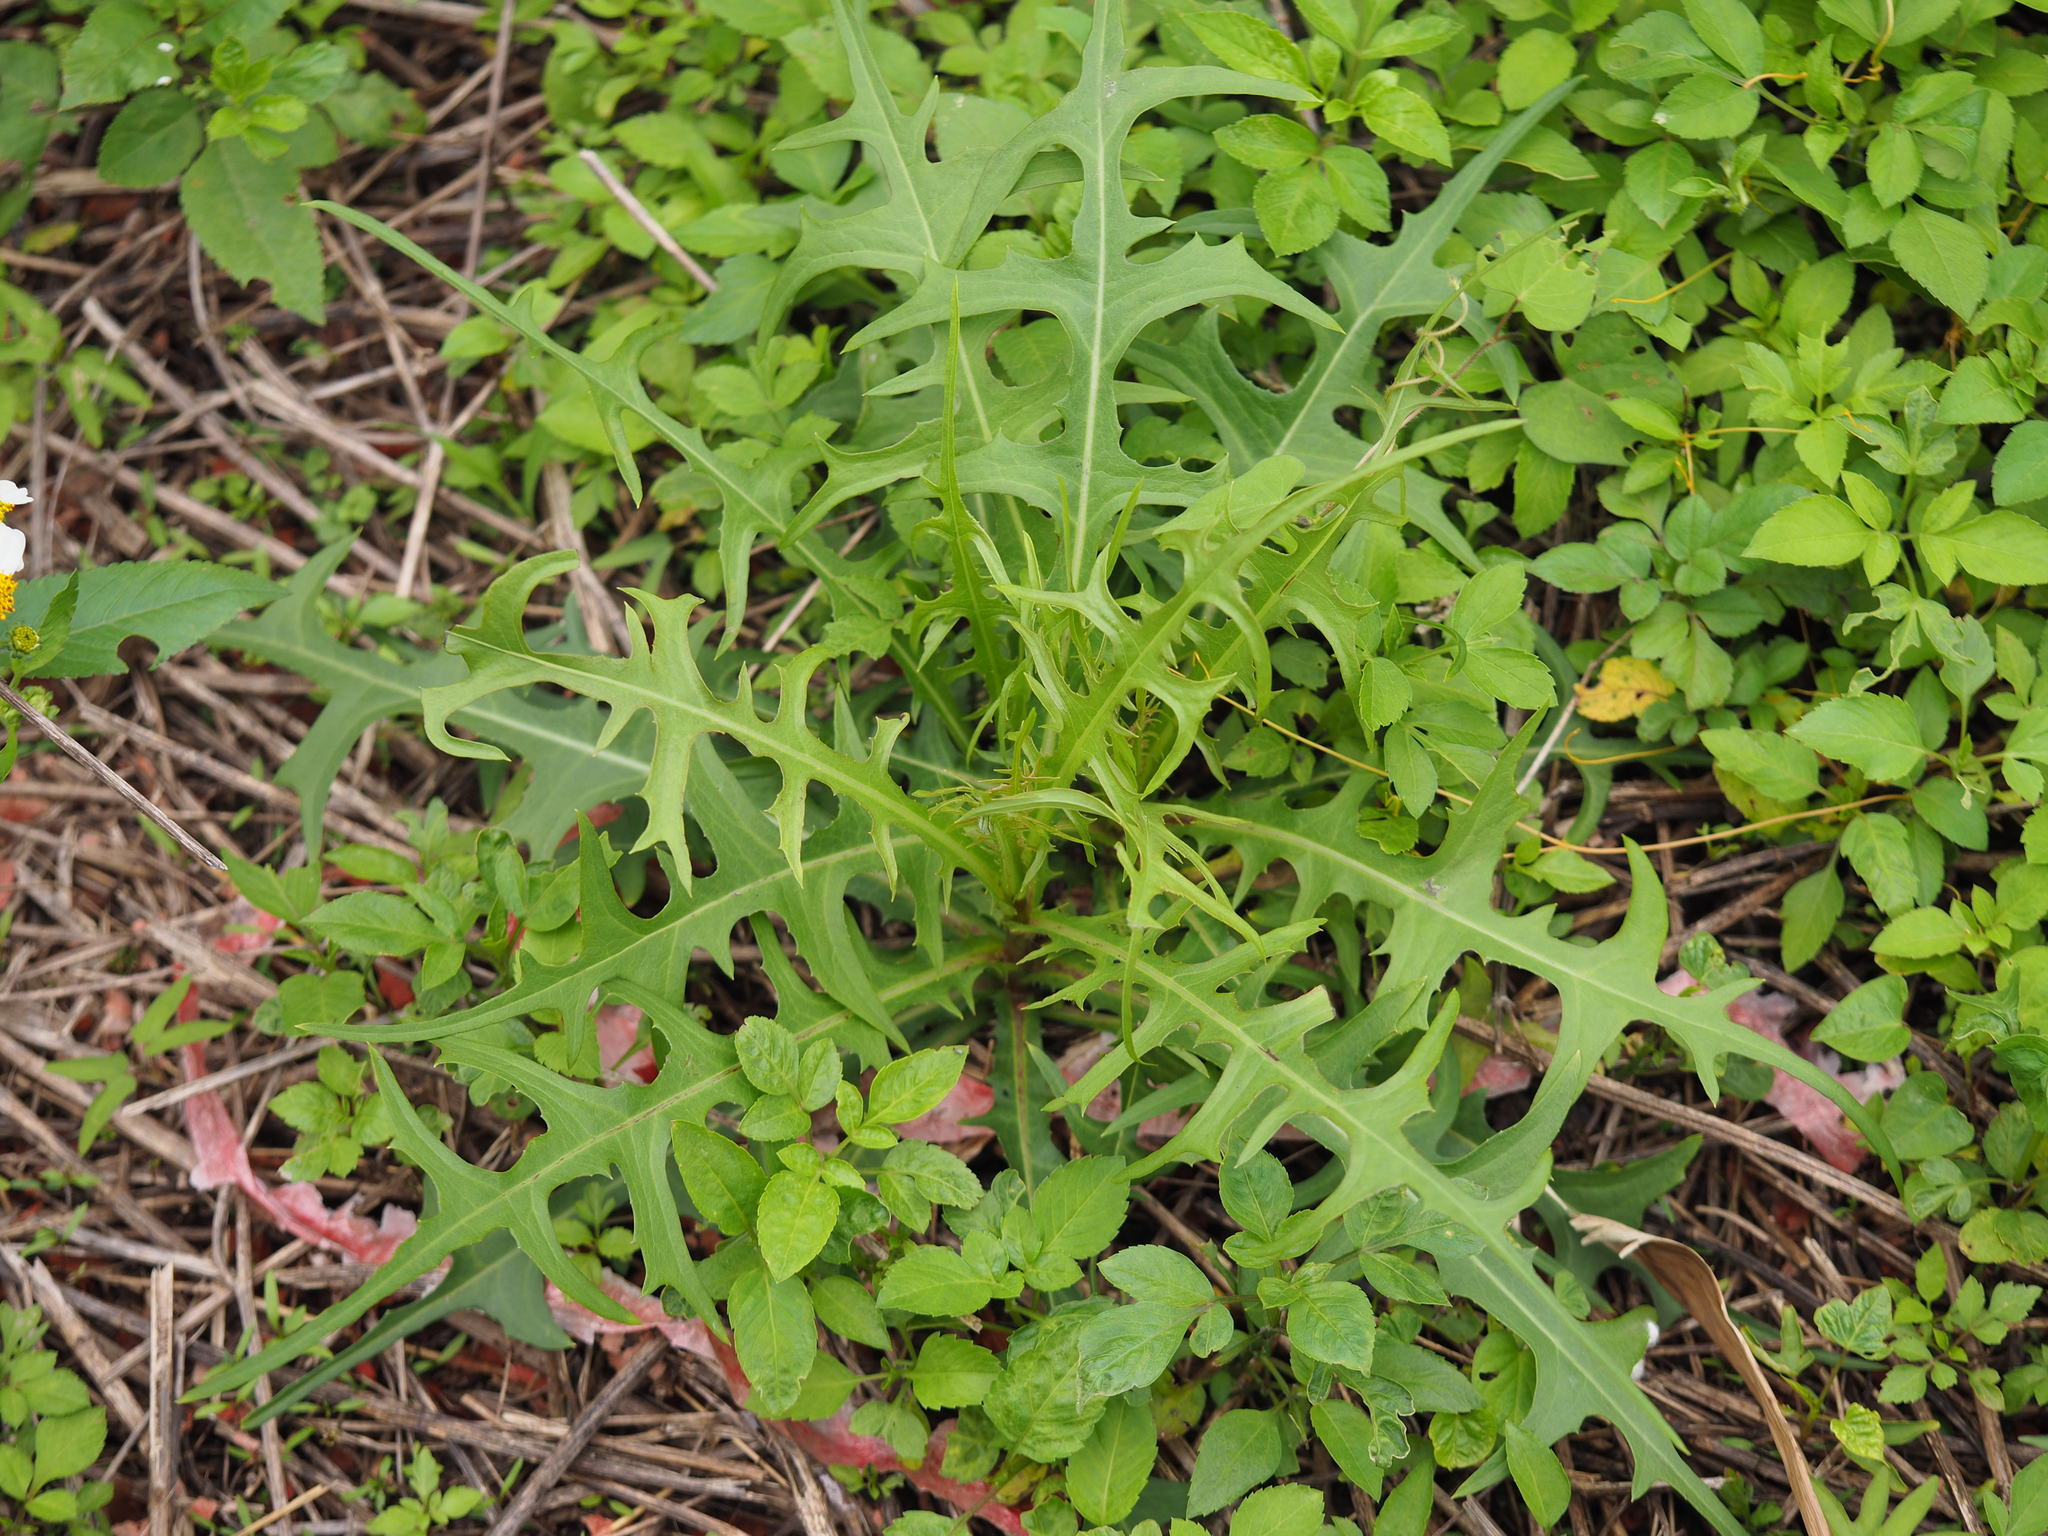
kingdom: Plantae
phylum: Tracheophyta
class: Magnoliopsida
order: Asterales
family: Asteraceae
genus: Lactuca
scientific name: Lactuca indica
